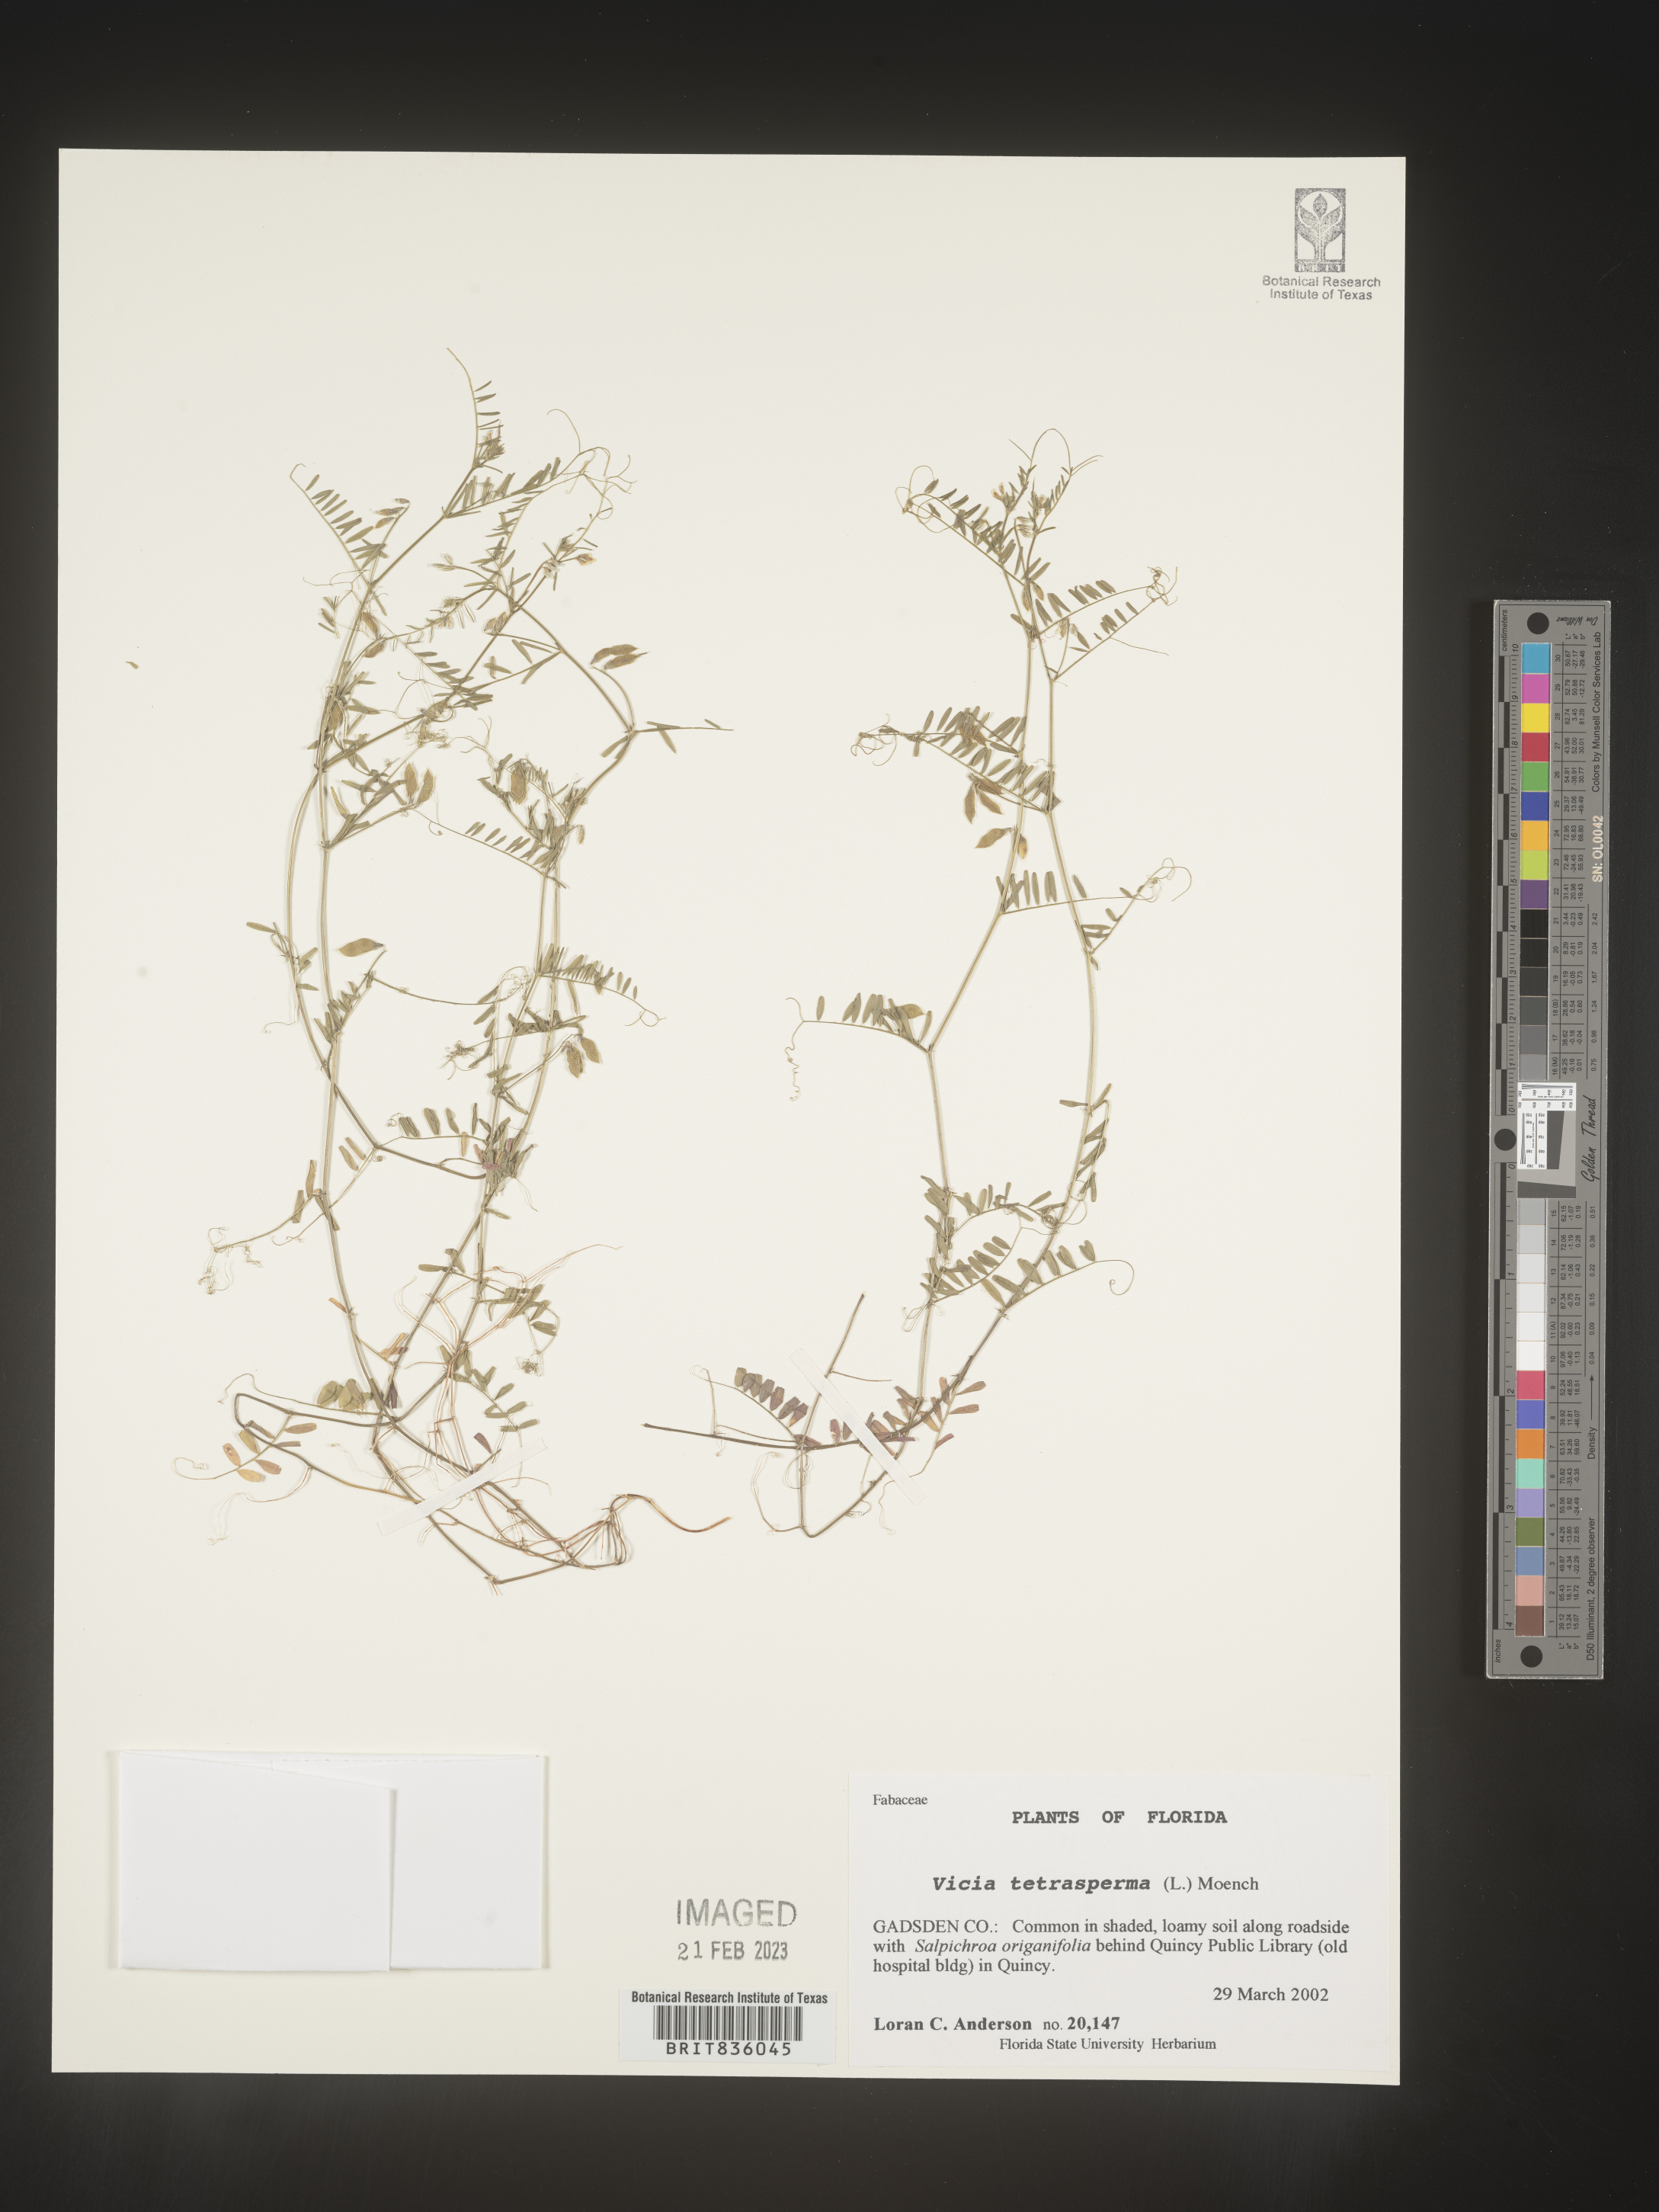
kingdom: Plantae
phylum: Tracheophyta
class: Magnoliopsida
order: Fabales
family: Fabaceae
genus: Vicia
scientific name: Vicia tetrasperma
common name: Smooth tare
